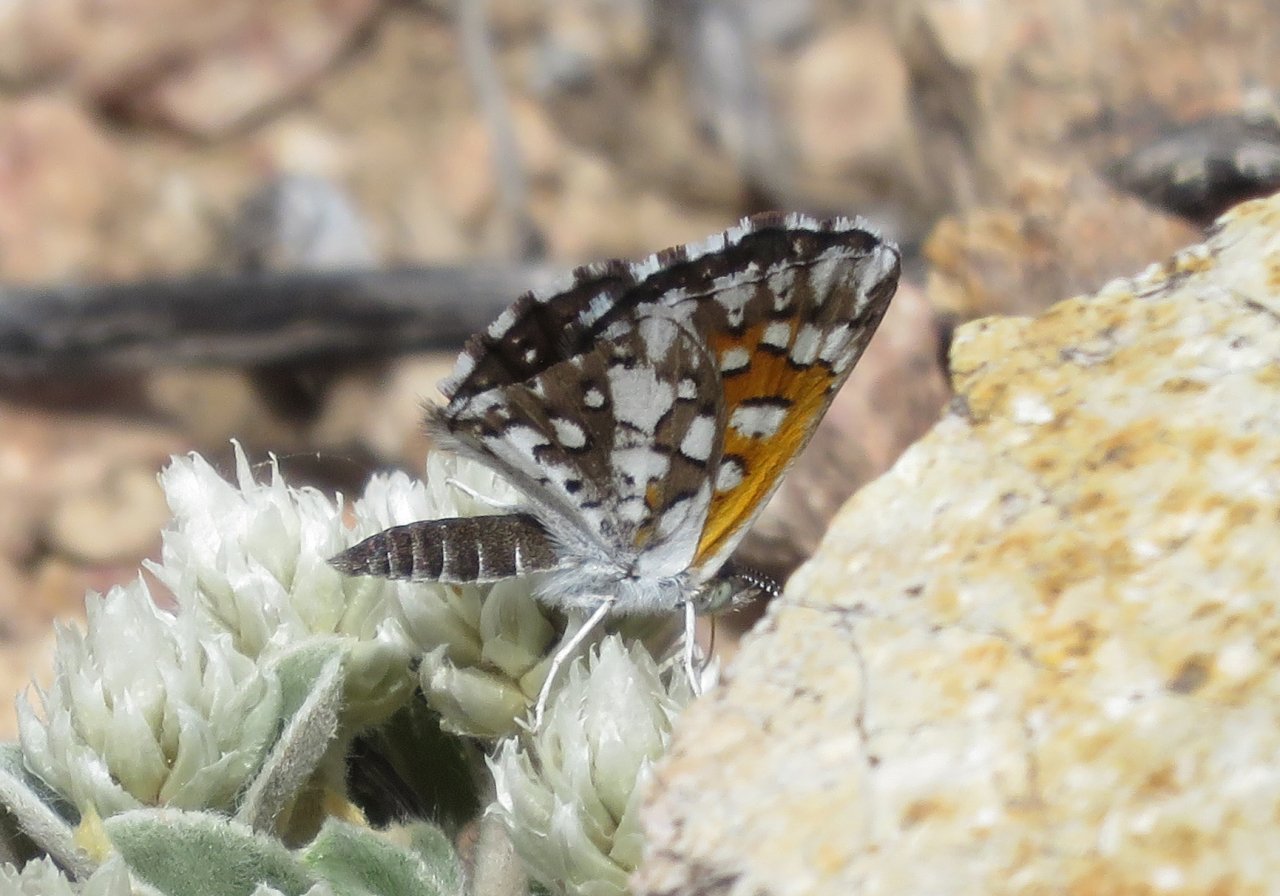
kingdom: Animalia
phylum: Arthropoda
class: Insecta
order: Lepidoptera
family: Riodinidae
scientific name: Riodinidae
